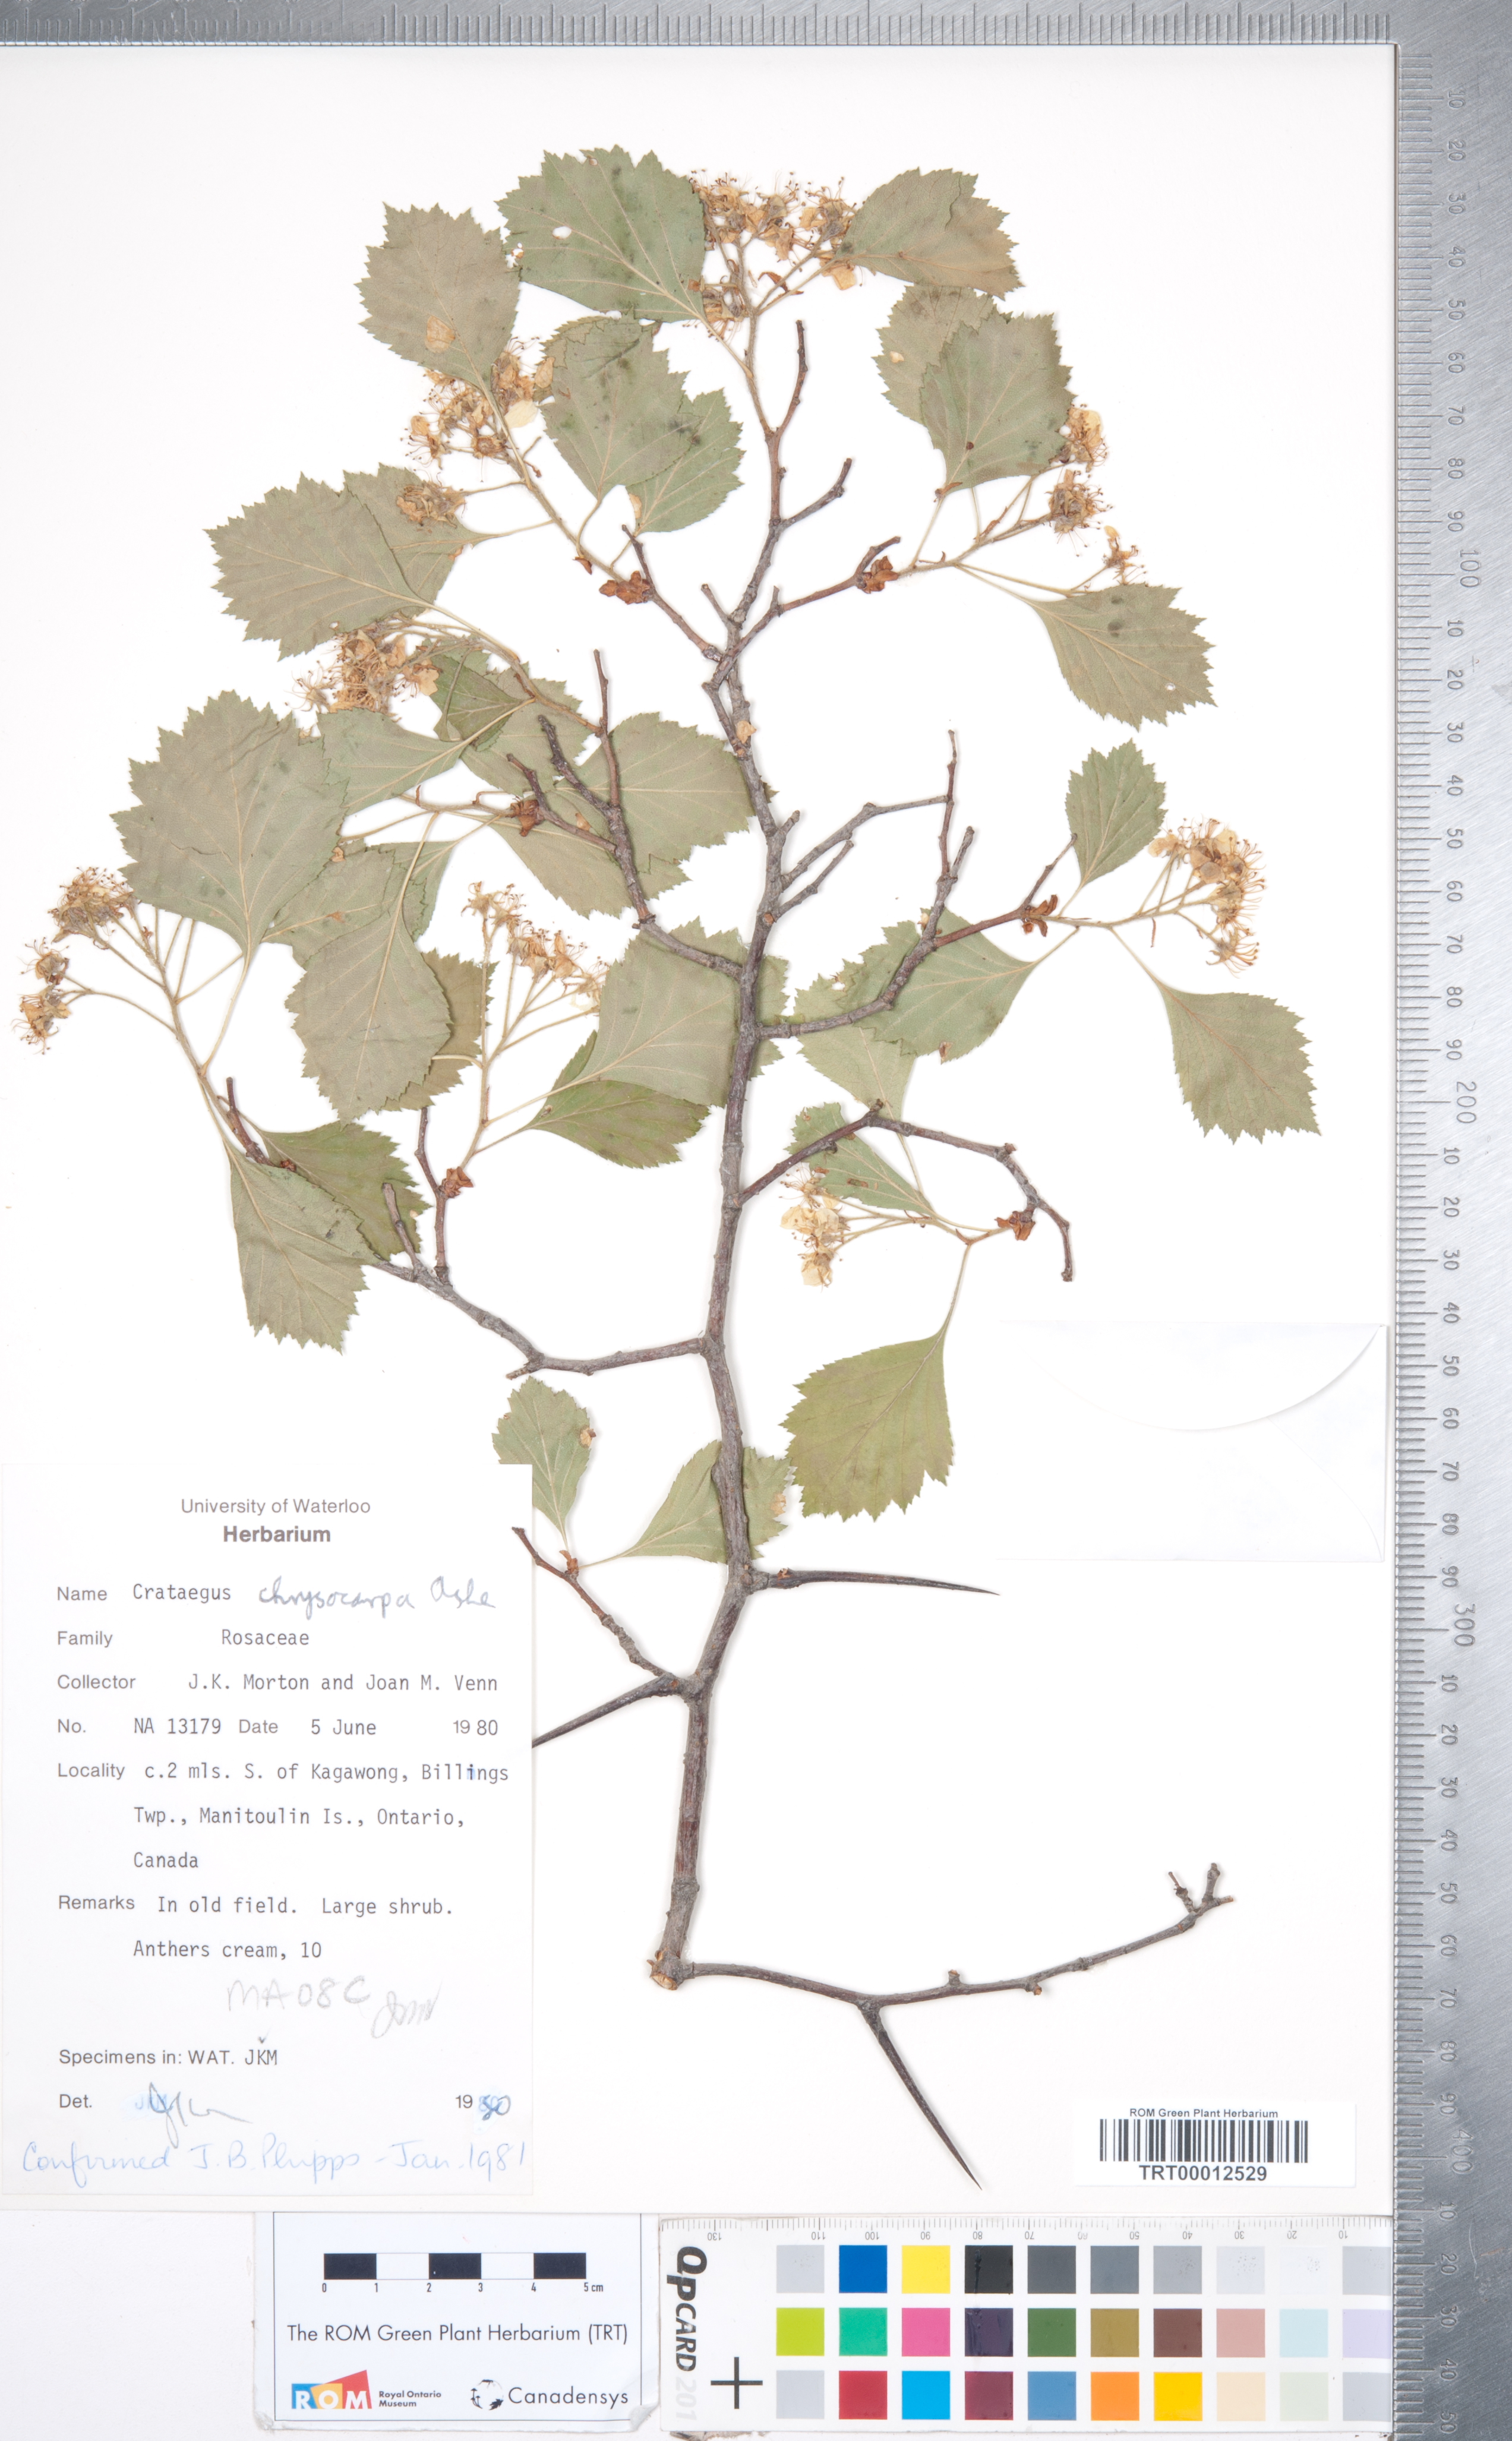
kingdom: Plantae
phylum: Tracheophyta
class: Magnoliopsida
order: Rosales
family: Rosaceae
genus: Crataegus
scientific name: Crataegus chrysocarpa
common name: Fire-berry hawthorn
